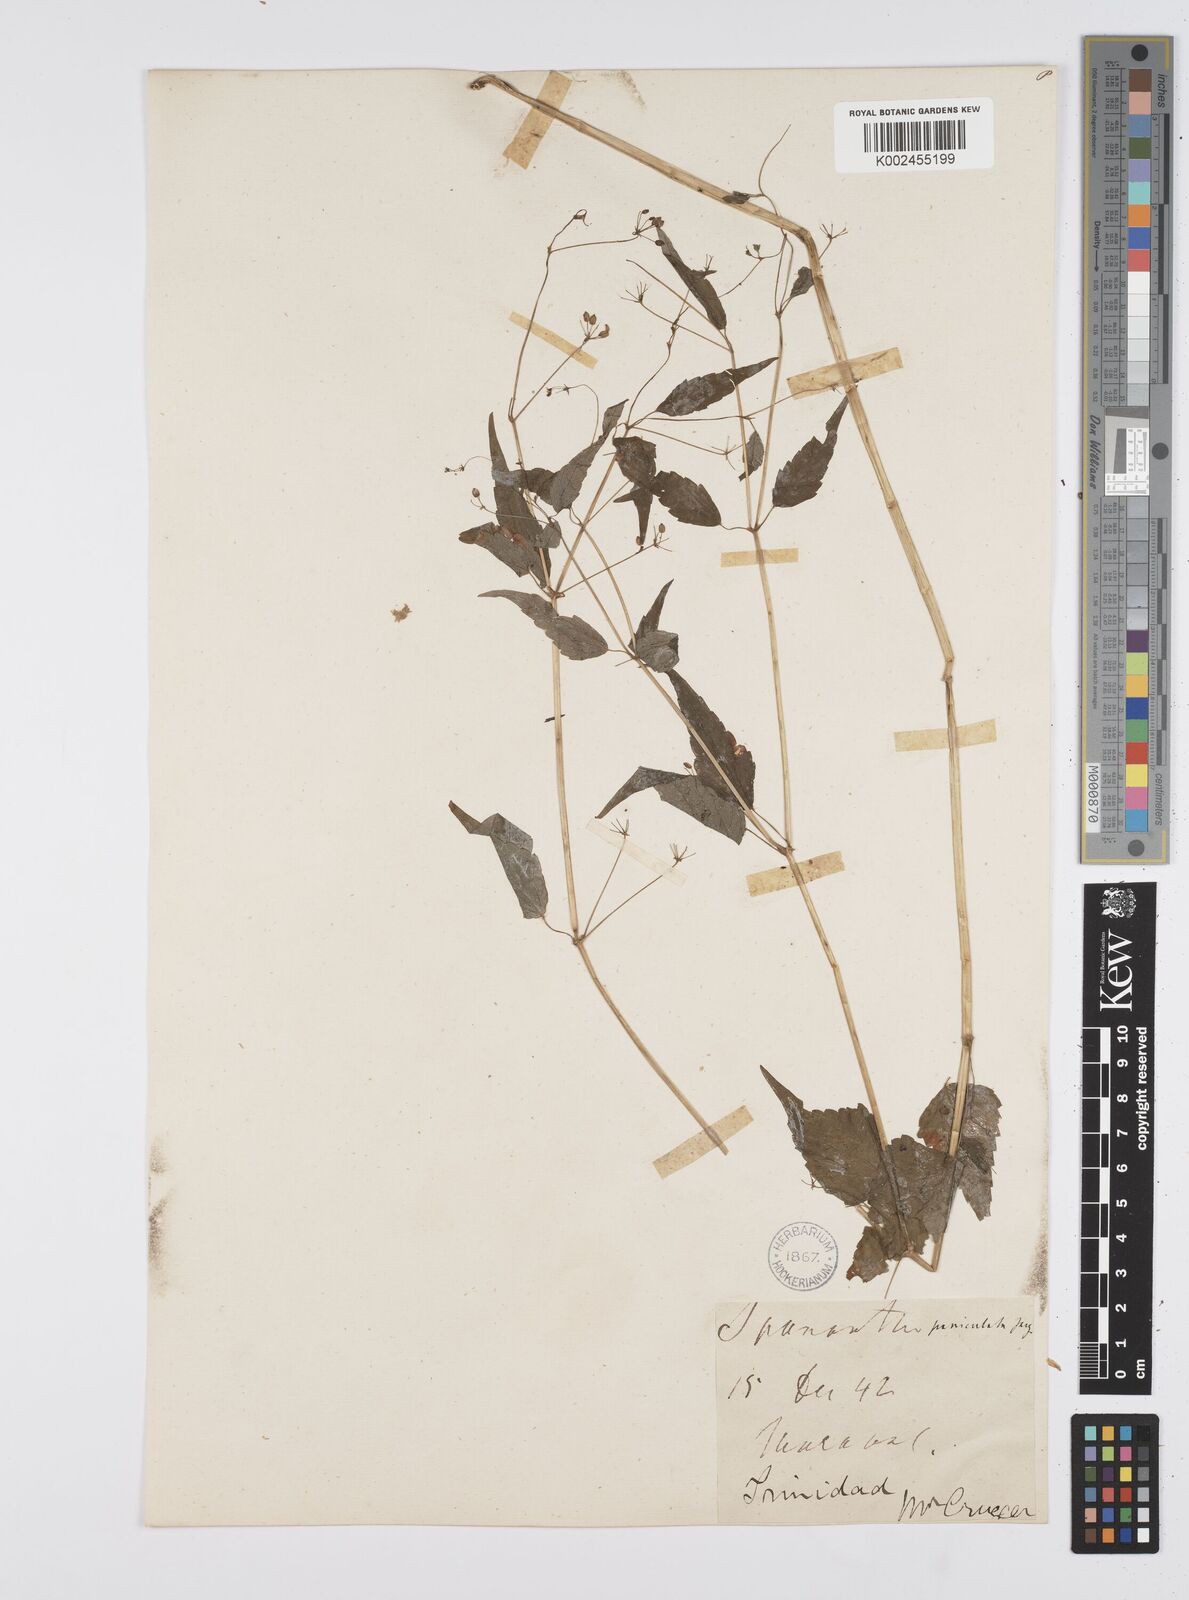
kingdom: Plantae
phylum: Tracheophyta
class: Magnoliopsida
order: Apiales
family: Apiaceae
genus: Azorella
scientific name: Azorella
